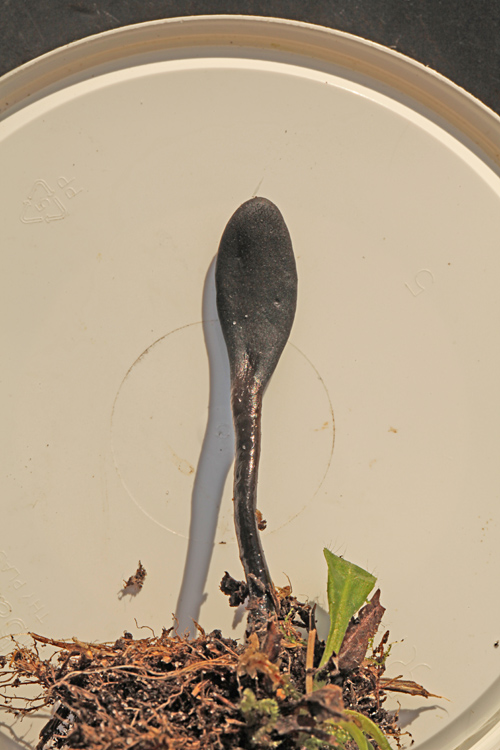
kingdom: Fungi
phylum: Ascomycota
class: Geoglossomycetes
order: Geoglossales
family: Geoglossaceae
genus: Glutinoglossum
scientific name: Glutinoglossum glutinosum
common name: slimet jordtunge
